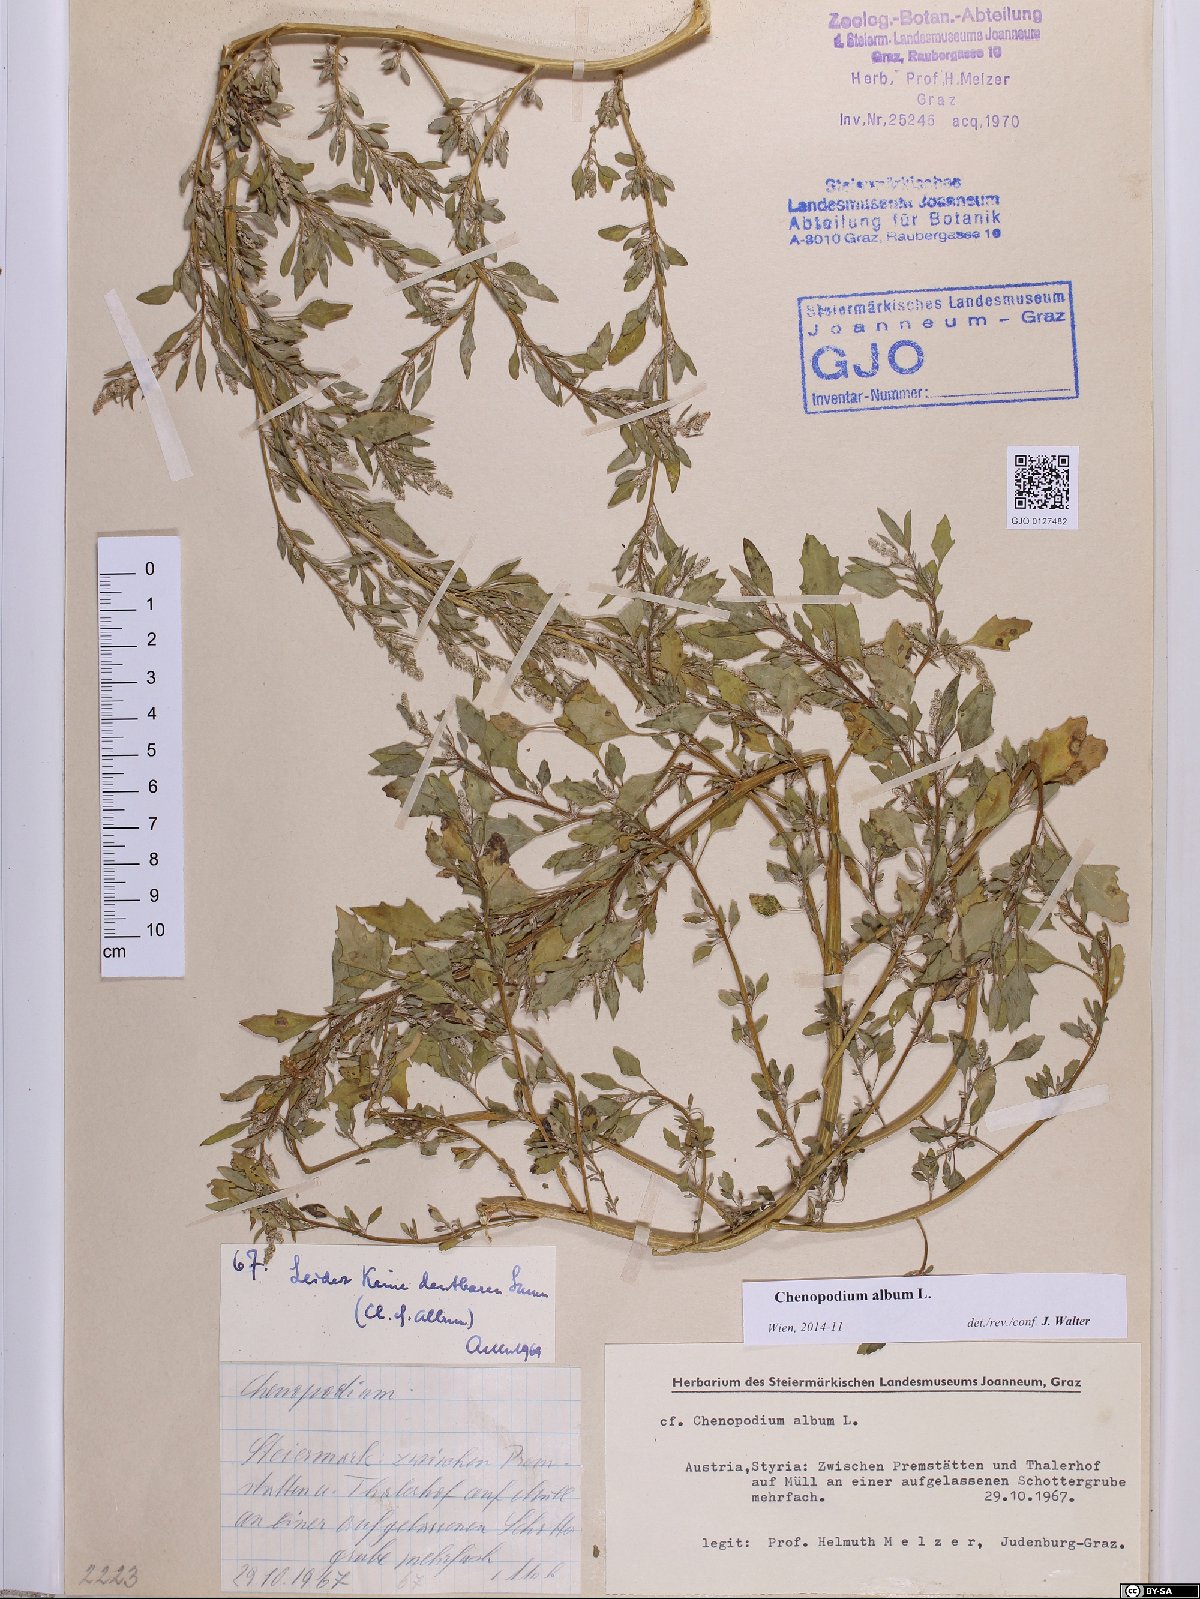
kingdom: Plantae
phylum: Tracheophyta
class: Magnoliopsida
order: Caryophyllales
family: Amaranthaceae
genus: Chenopodium
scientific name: Chenopodium album
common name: Fat-hen
